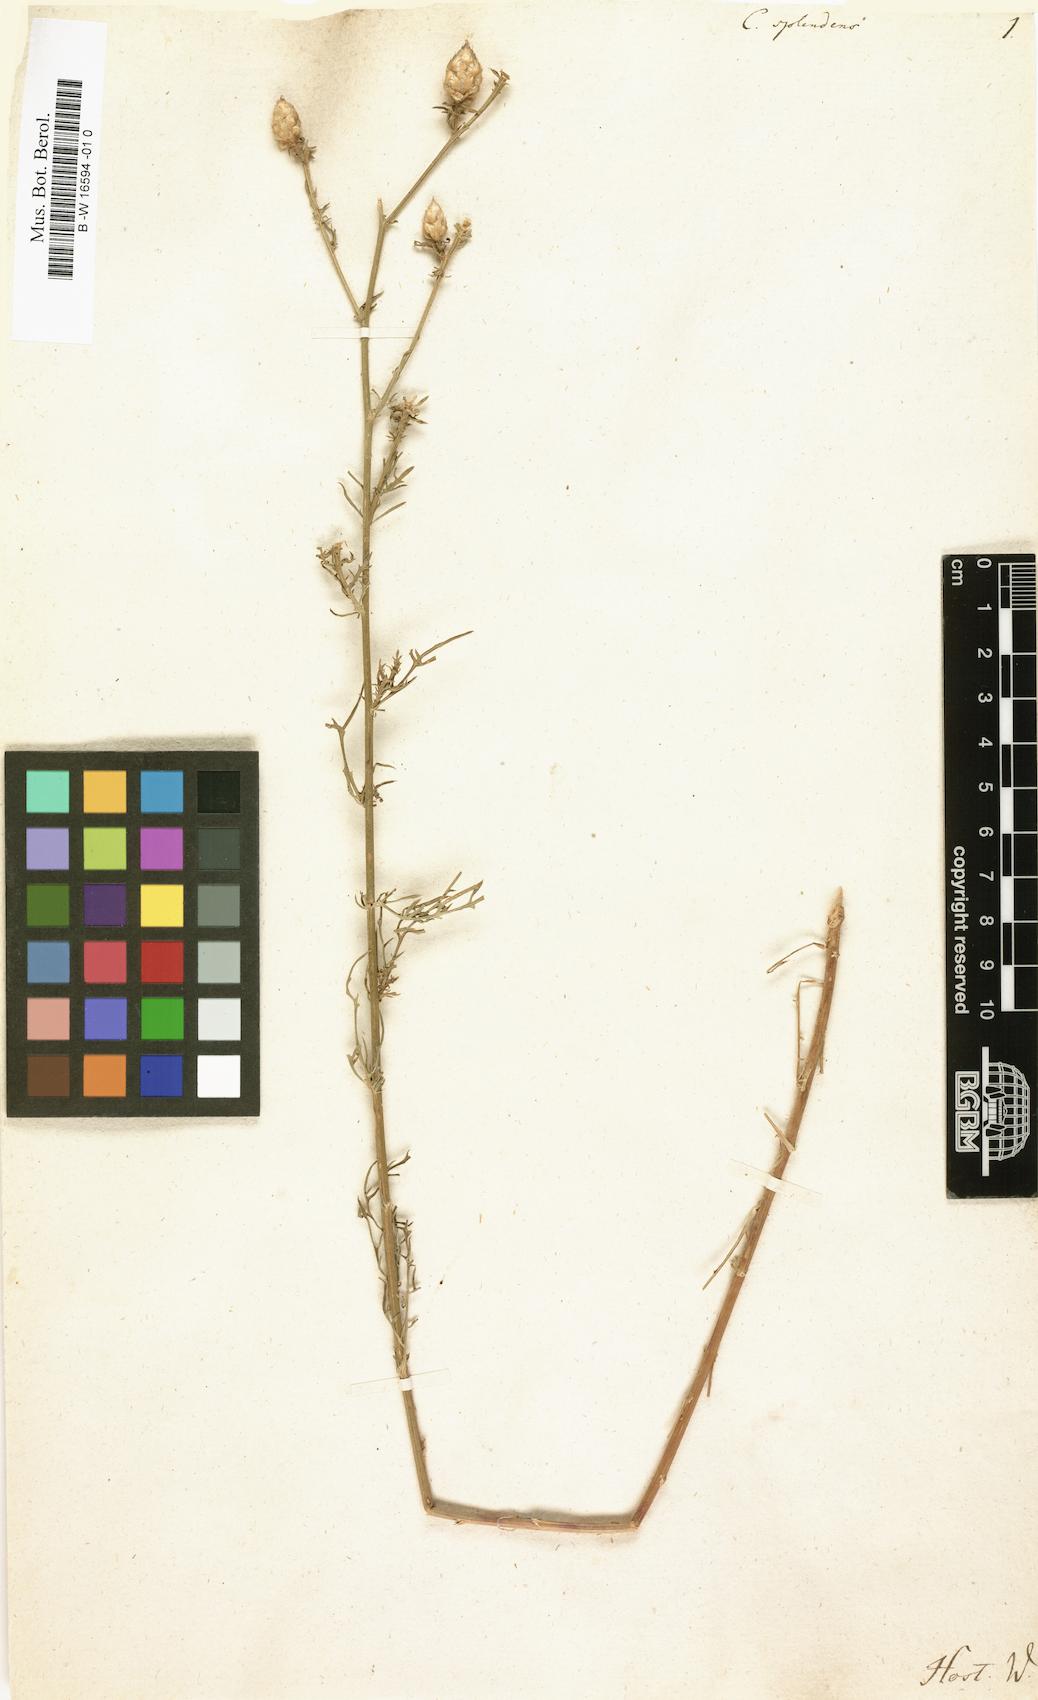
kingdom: Plantae
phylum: Tracheophyta
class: Magnoliopsida
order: Asterales
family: Asteraceae
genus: Centaurea
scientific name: Centaurea splendens
